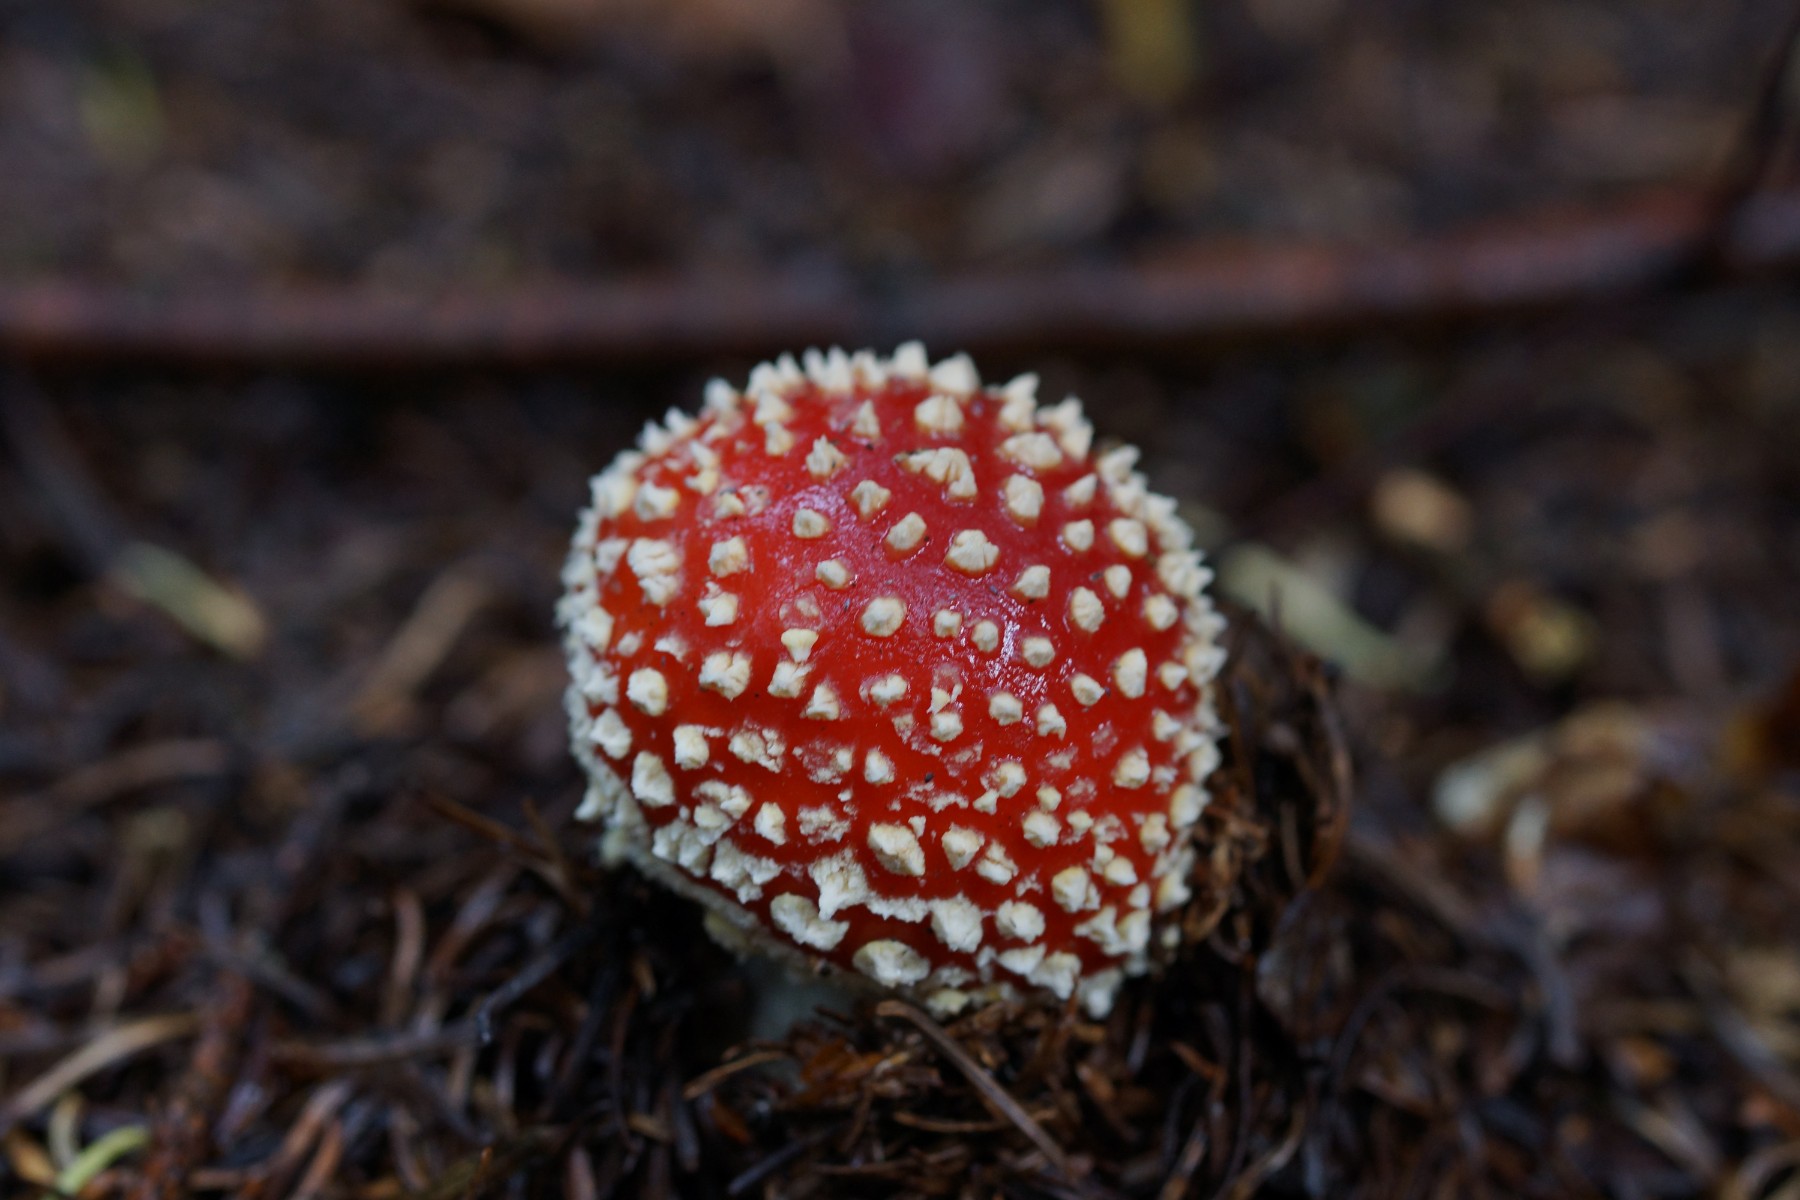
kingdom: Fungi
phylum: Basidiomycota
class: Agaricomycetes
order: Agaricales
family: Amanitaceae
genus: Amanita
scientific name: Amanita muscaria
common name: rød fluesvamp
